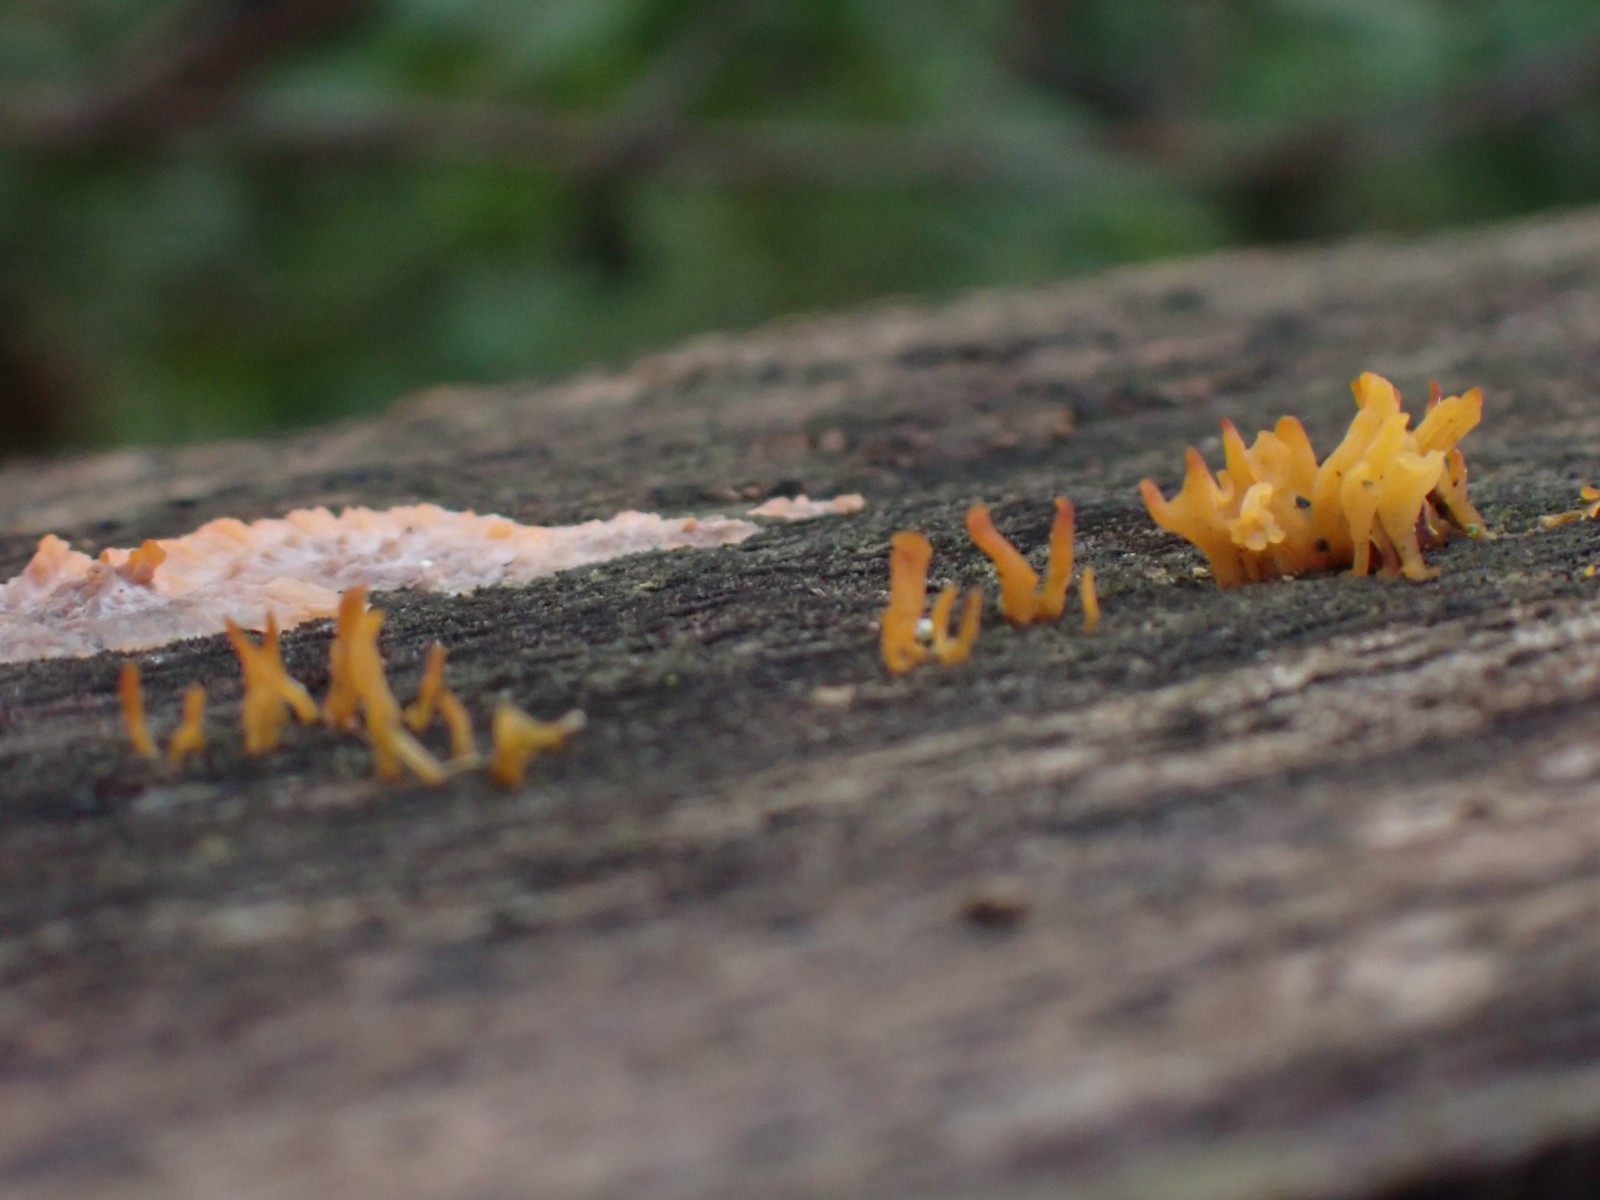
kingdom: Fungi
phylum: Basidiomycota
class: Dacrymycetes
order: Dacrymycetales
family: Dacrymycetaceae
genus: Calocera
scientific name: Calocera cornea
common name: liden guldgaffel
